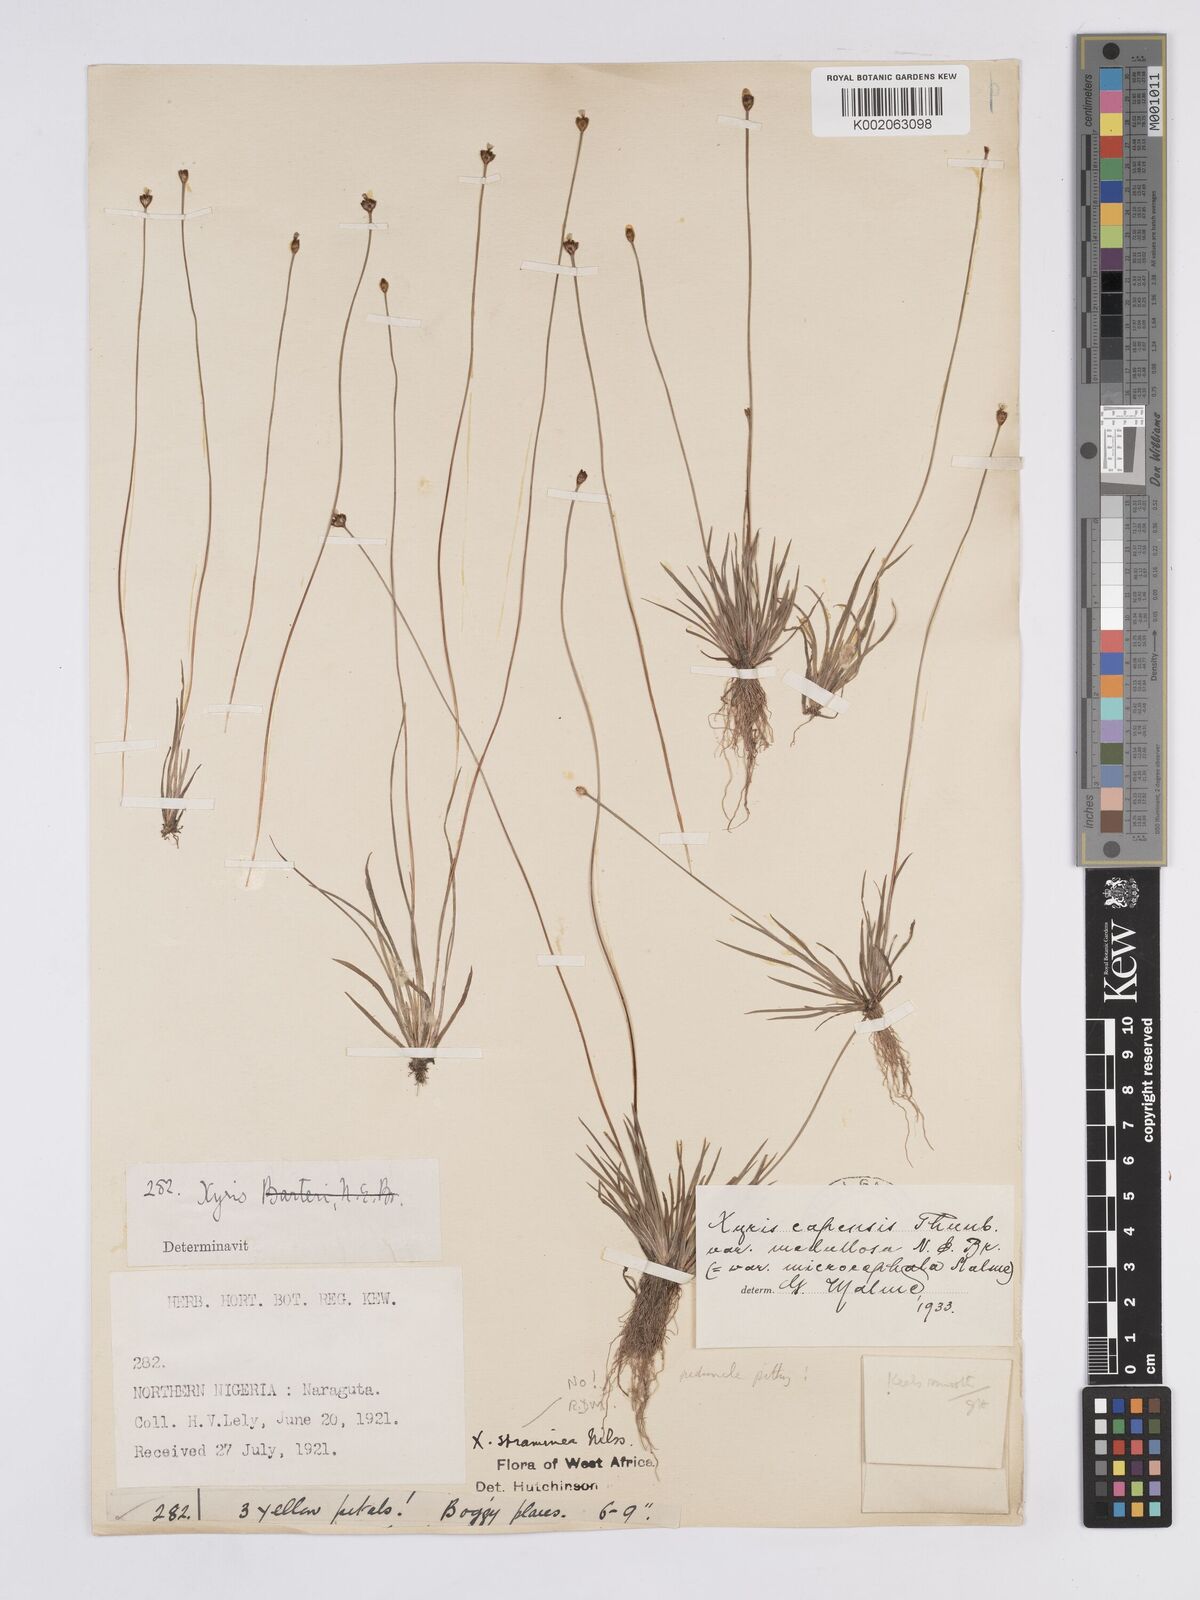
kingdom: Plantae
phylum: Tracheophyta
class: Liliopsida
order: Poales
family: Xyridaceae
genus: Xyris
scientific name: Xyris capensis
